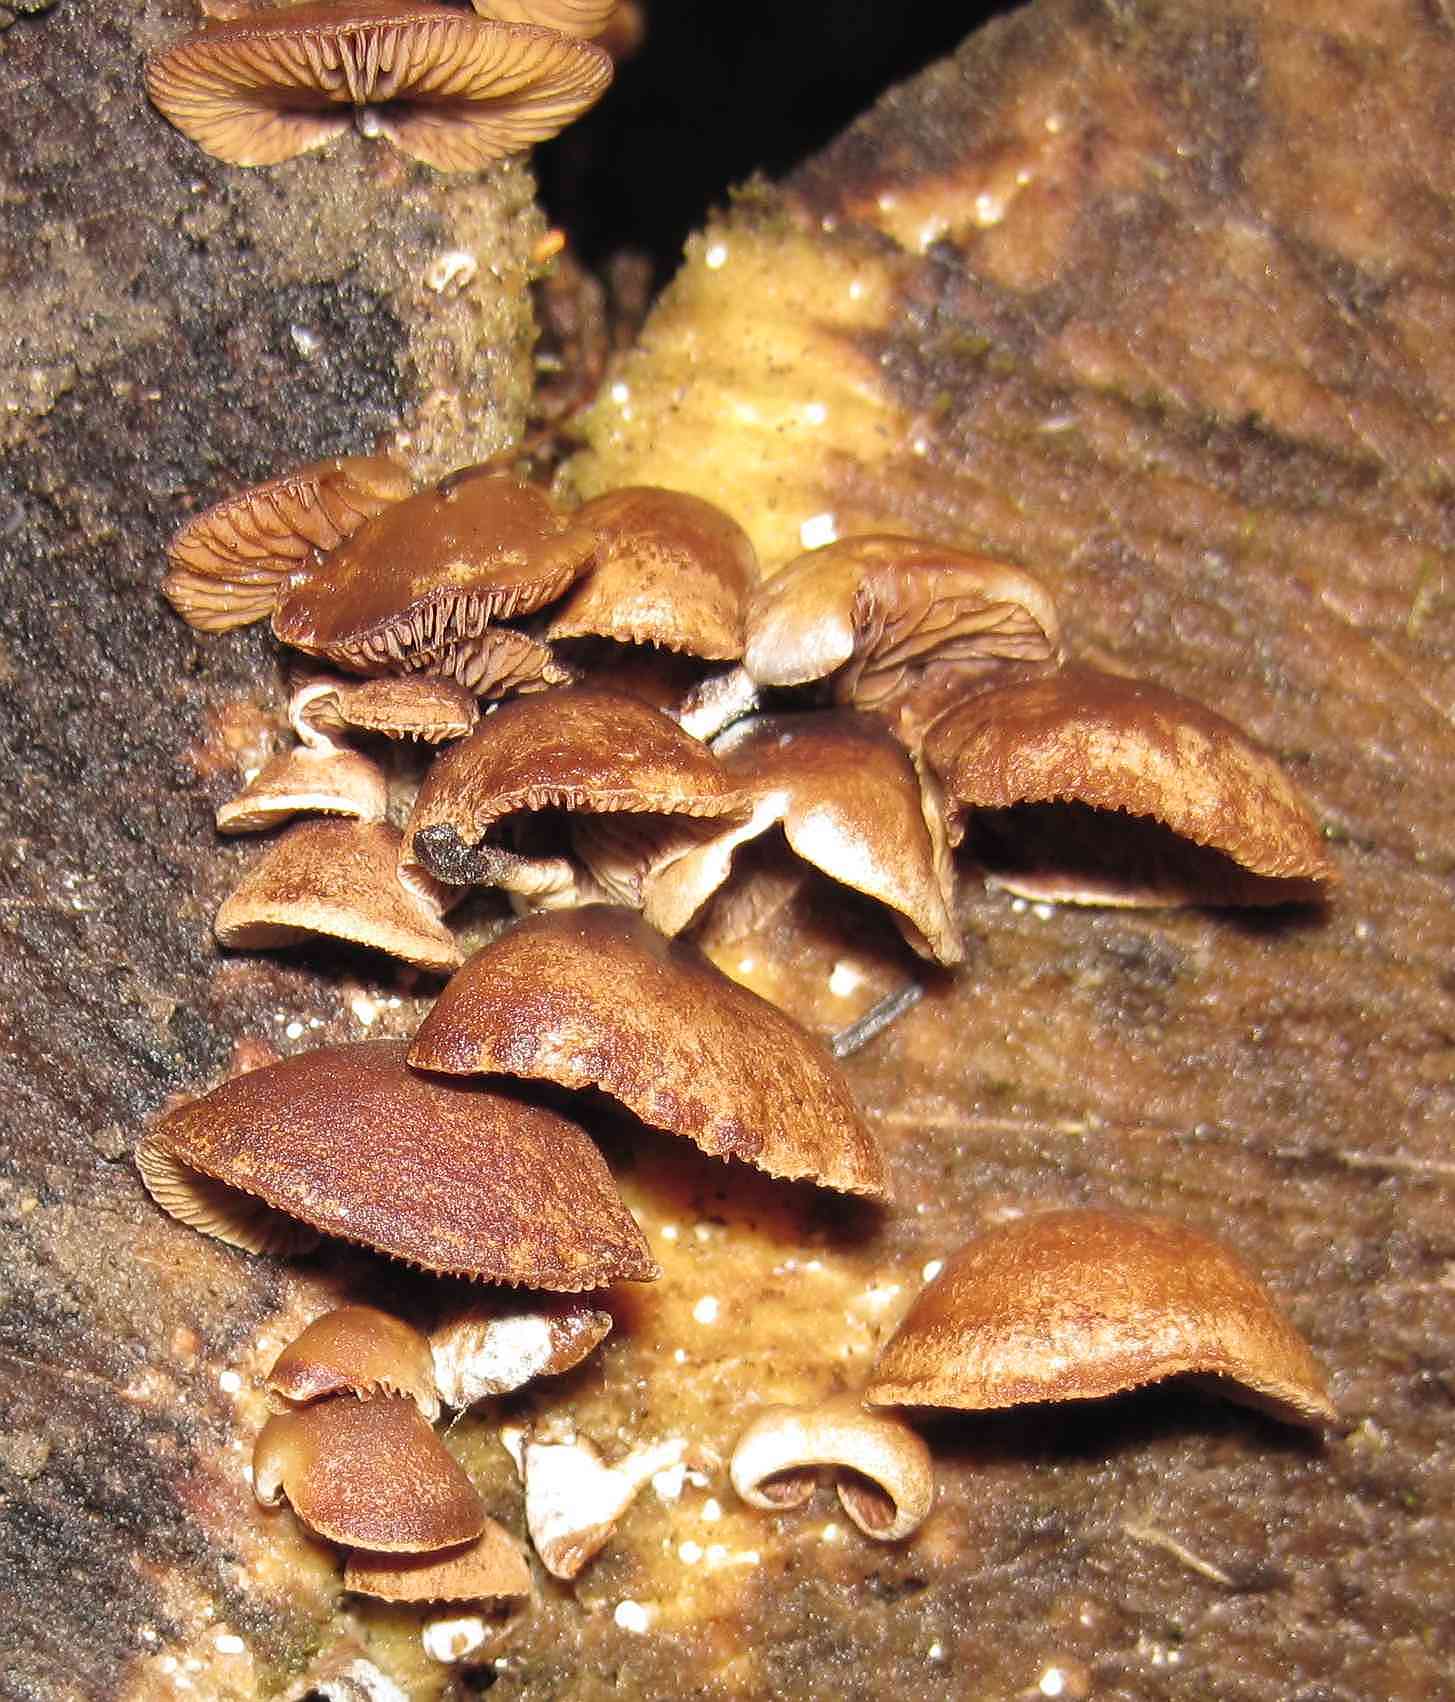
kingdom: Fungi
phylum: Basidiomycota
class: Agaricomycetes
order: Agaricales
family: Strophariaceae
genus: Deconica
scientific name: Deconica horizontalis
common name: ved-stråhat
